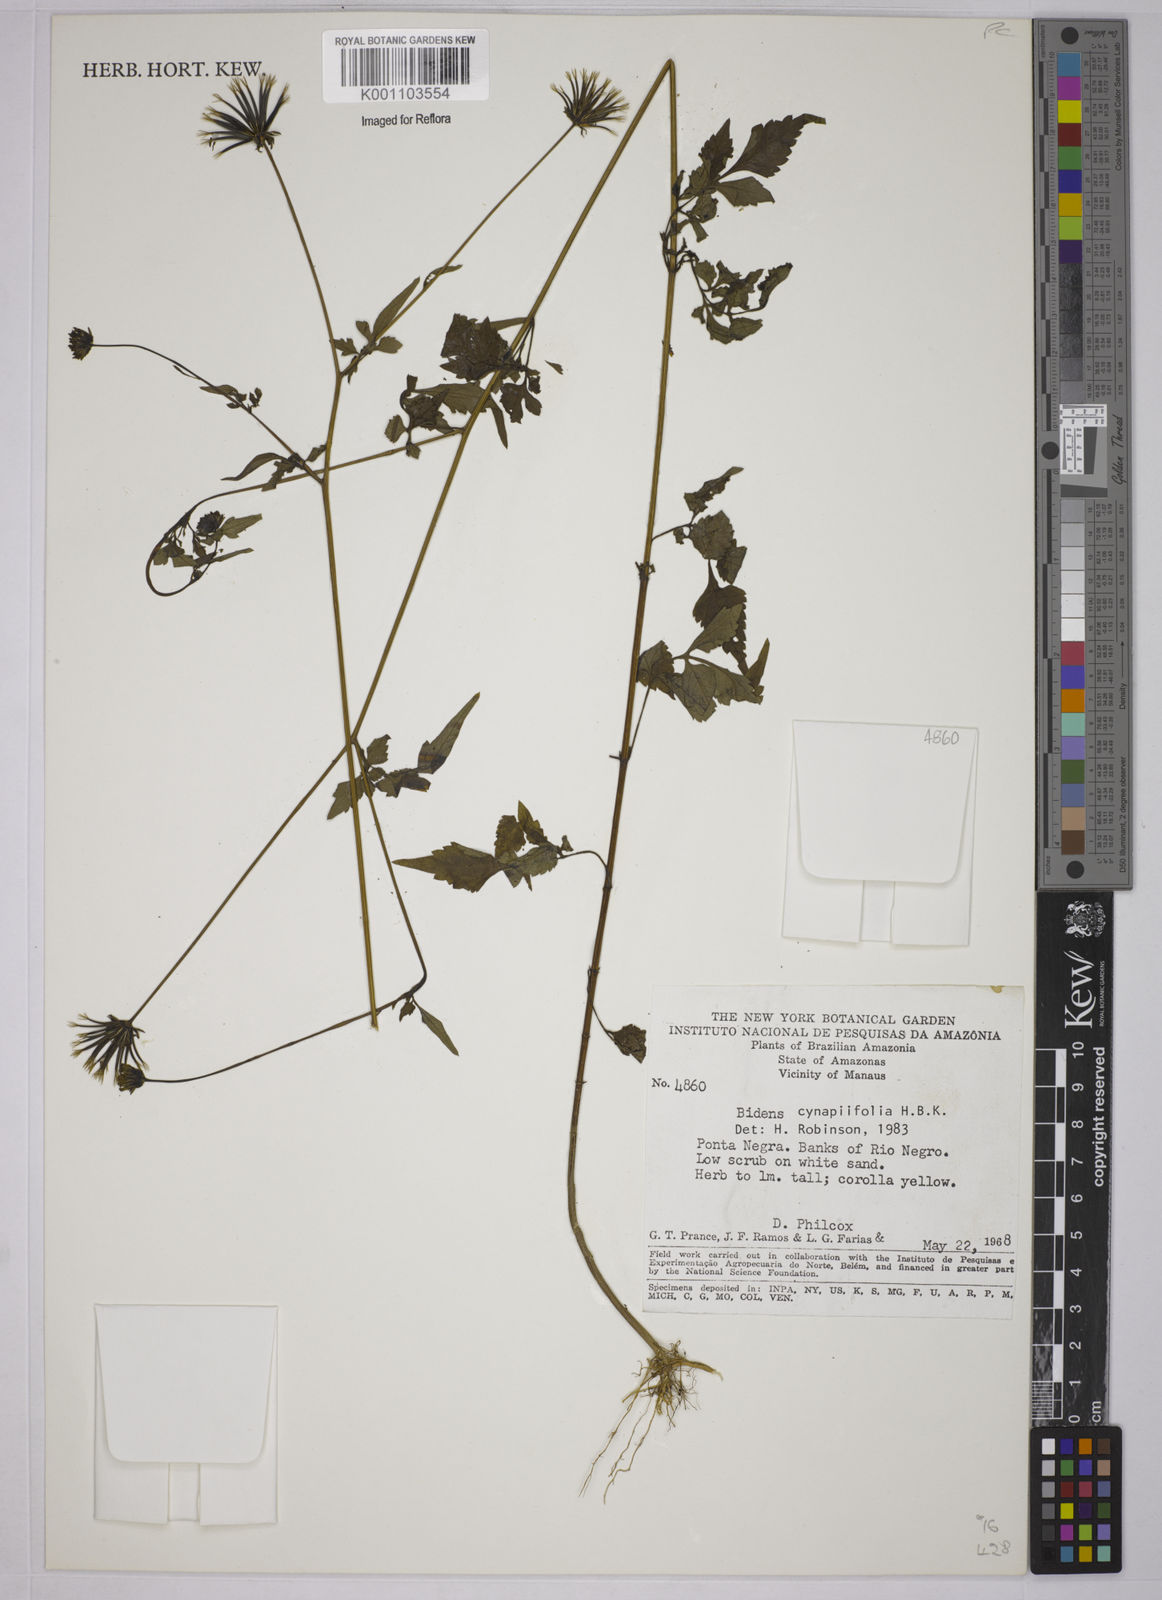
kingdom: Plantae
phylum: Tracheophyta
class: Magnoliopsida
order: Asterales
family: Asteraceae
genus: Bidens
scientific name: Bidens cynapiifolia
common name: Beggar's tick
